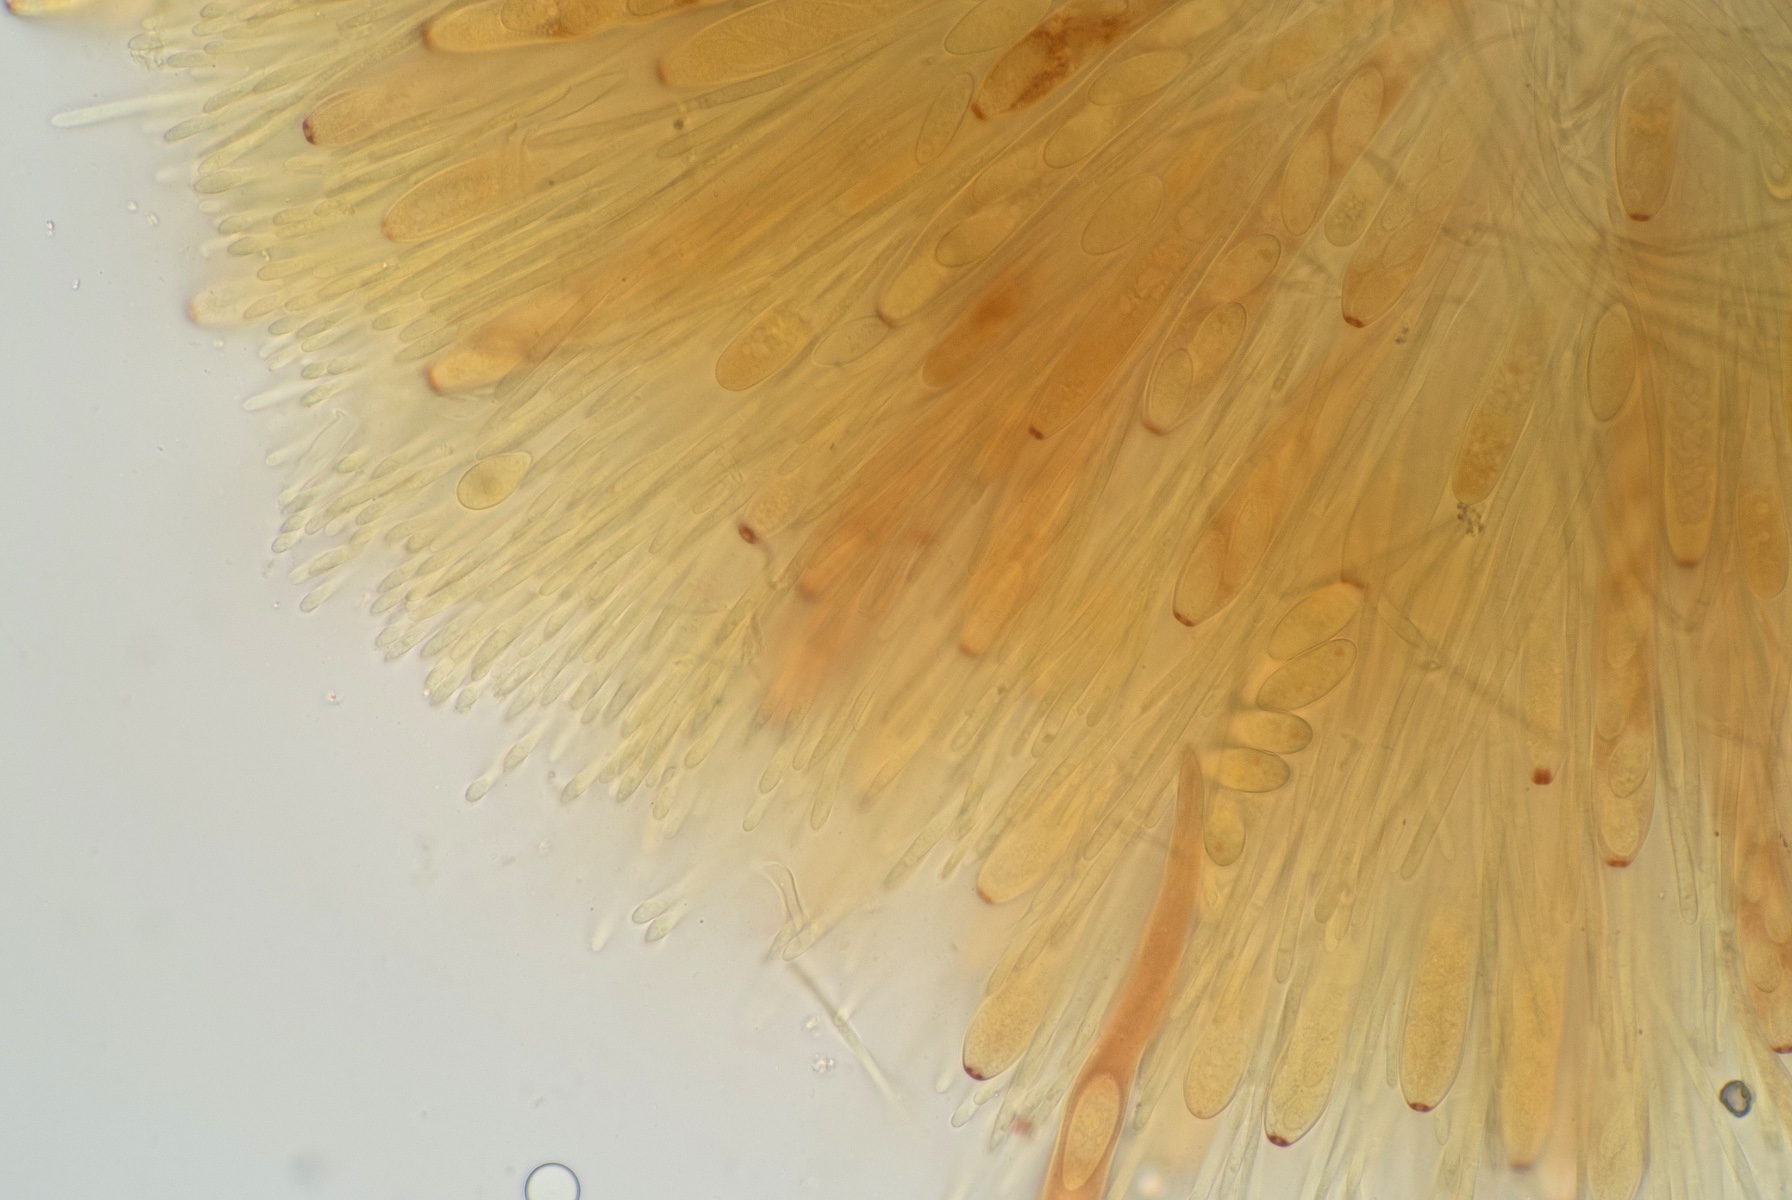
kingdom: Fungi
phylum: Ascomycota
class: Leotiomycetes
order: Helotiales
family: Lachnaceae
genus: Lachnellula
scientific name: Lachnellula occidentalis
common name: Larch disco
